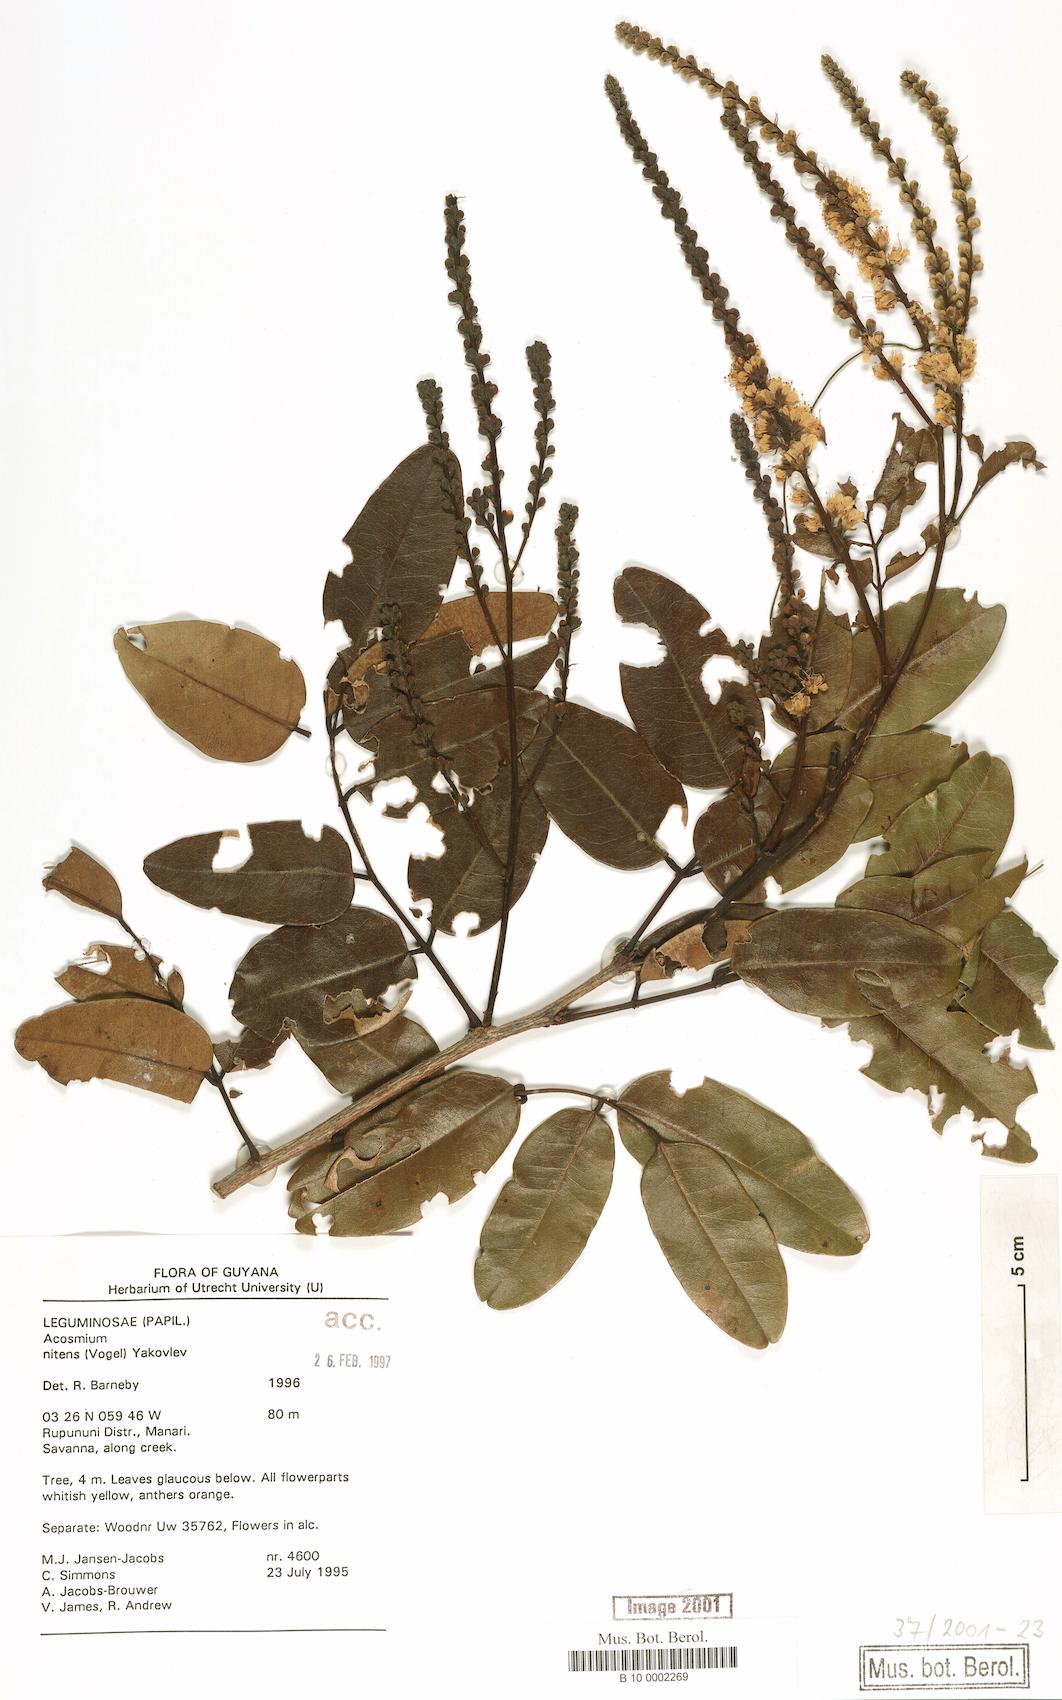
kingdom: Plantae
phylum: Tracheophyta
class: Magnoliopsida
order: Fabales
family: Fabaceae
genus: Leptolobium
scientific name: Leptolobium nitens
